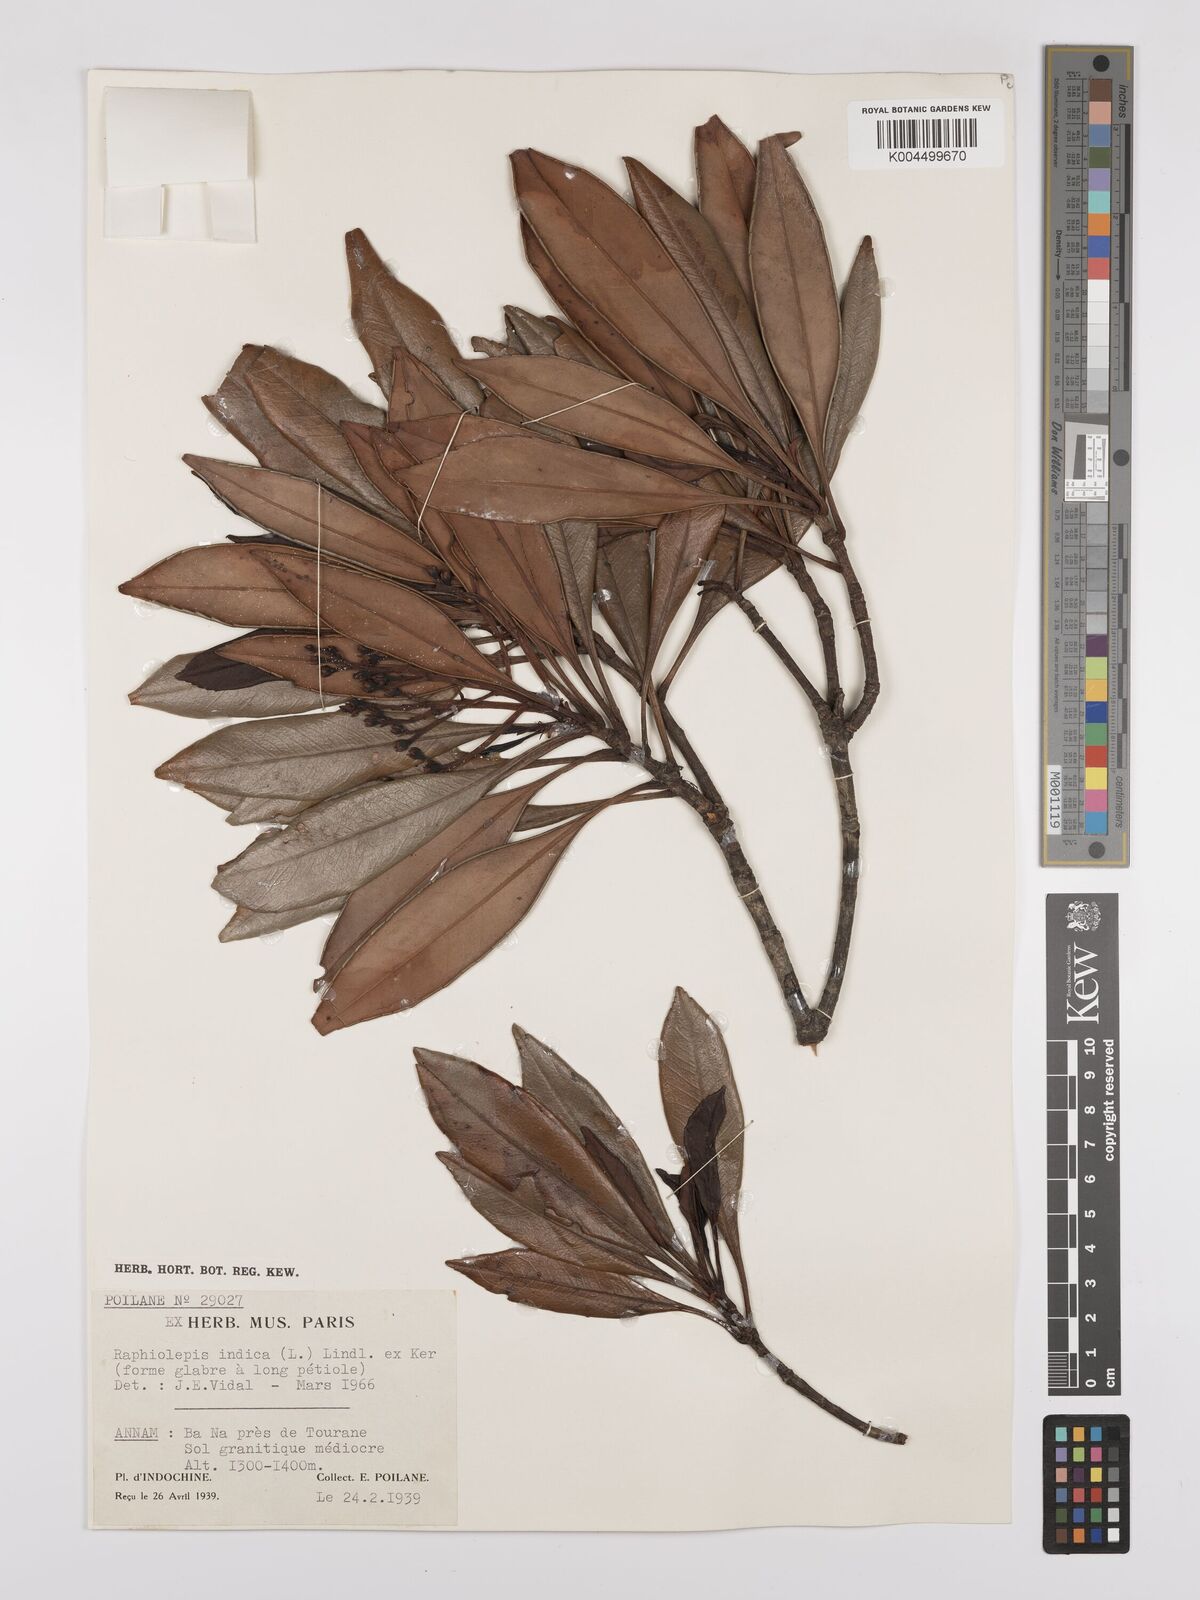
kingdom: Plantae
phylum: Tracheophyta
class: Magnoliopsida
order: Rosales
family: Rosaceae
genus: Rhaphiolepis
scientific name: Rhaphiolepis indica
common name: India-hawthorn
